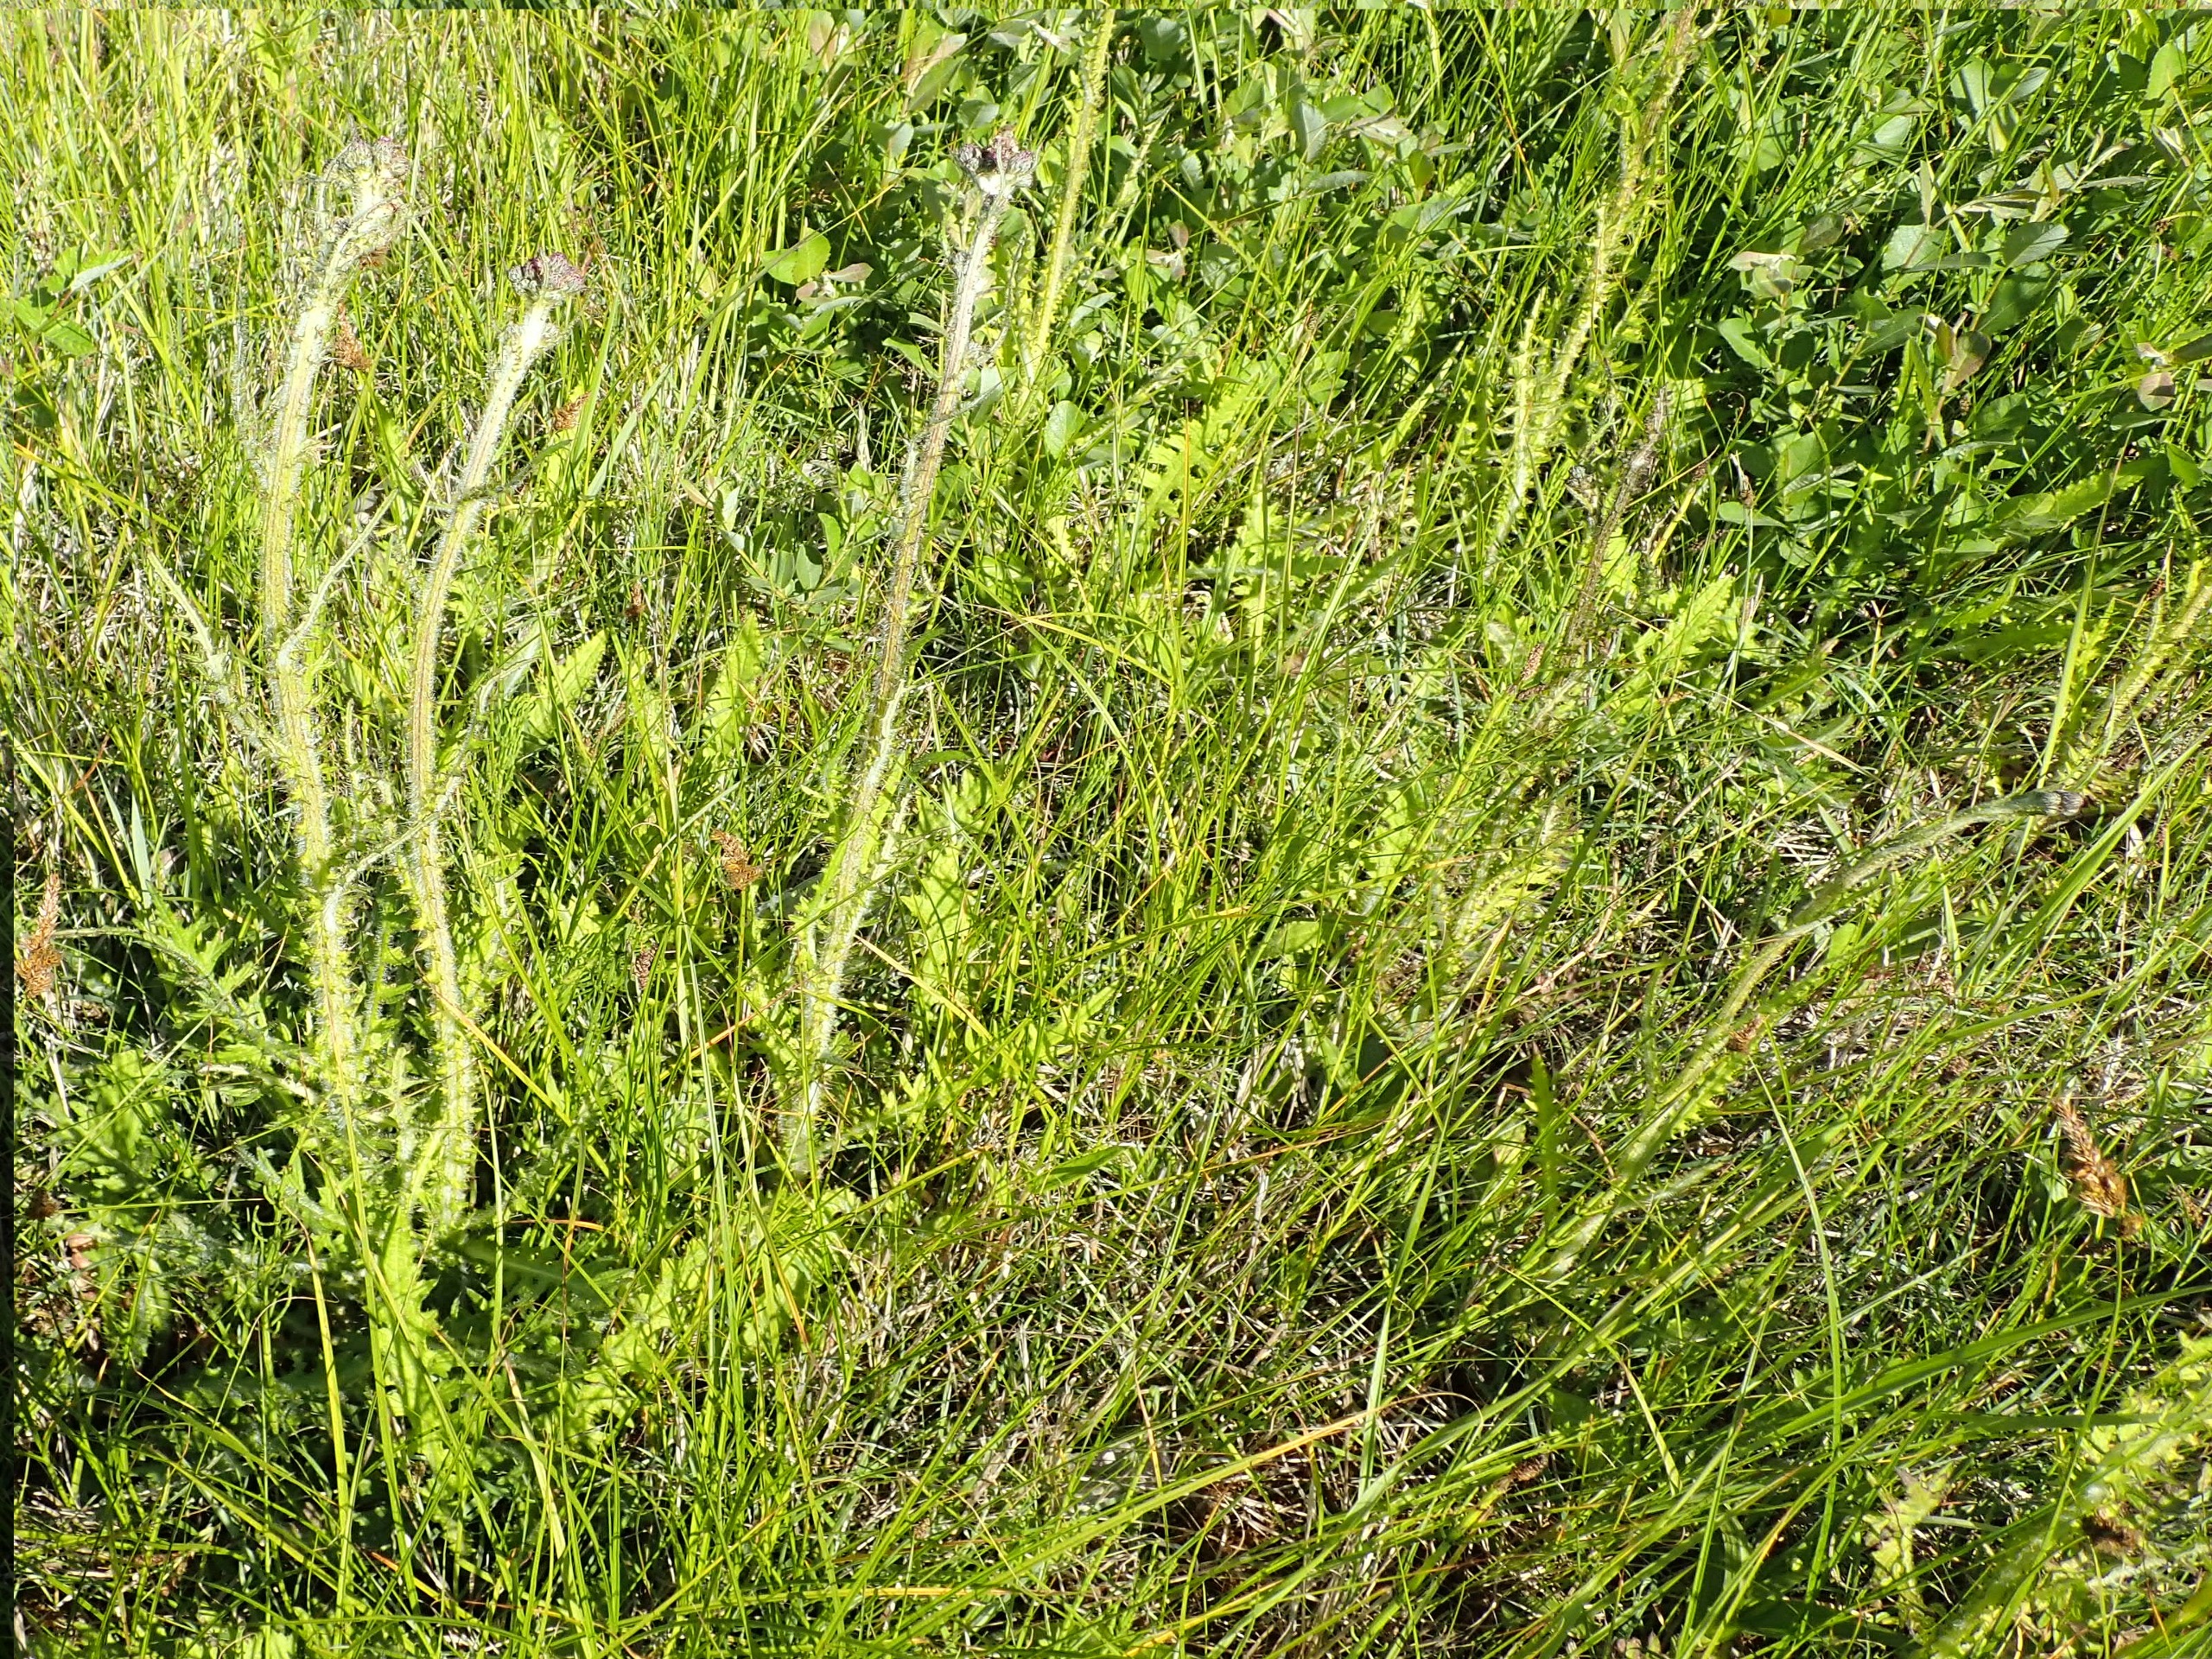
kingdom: Plantae
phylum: Tracheophyta
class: Magnoliopsida
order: Asterales
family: Asteraceae
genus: Cirsium
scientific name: Cirsium palustre
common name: Kær-tidsel
